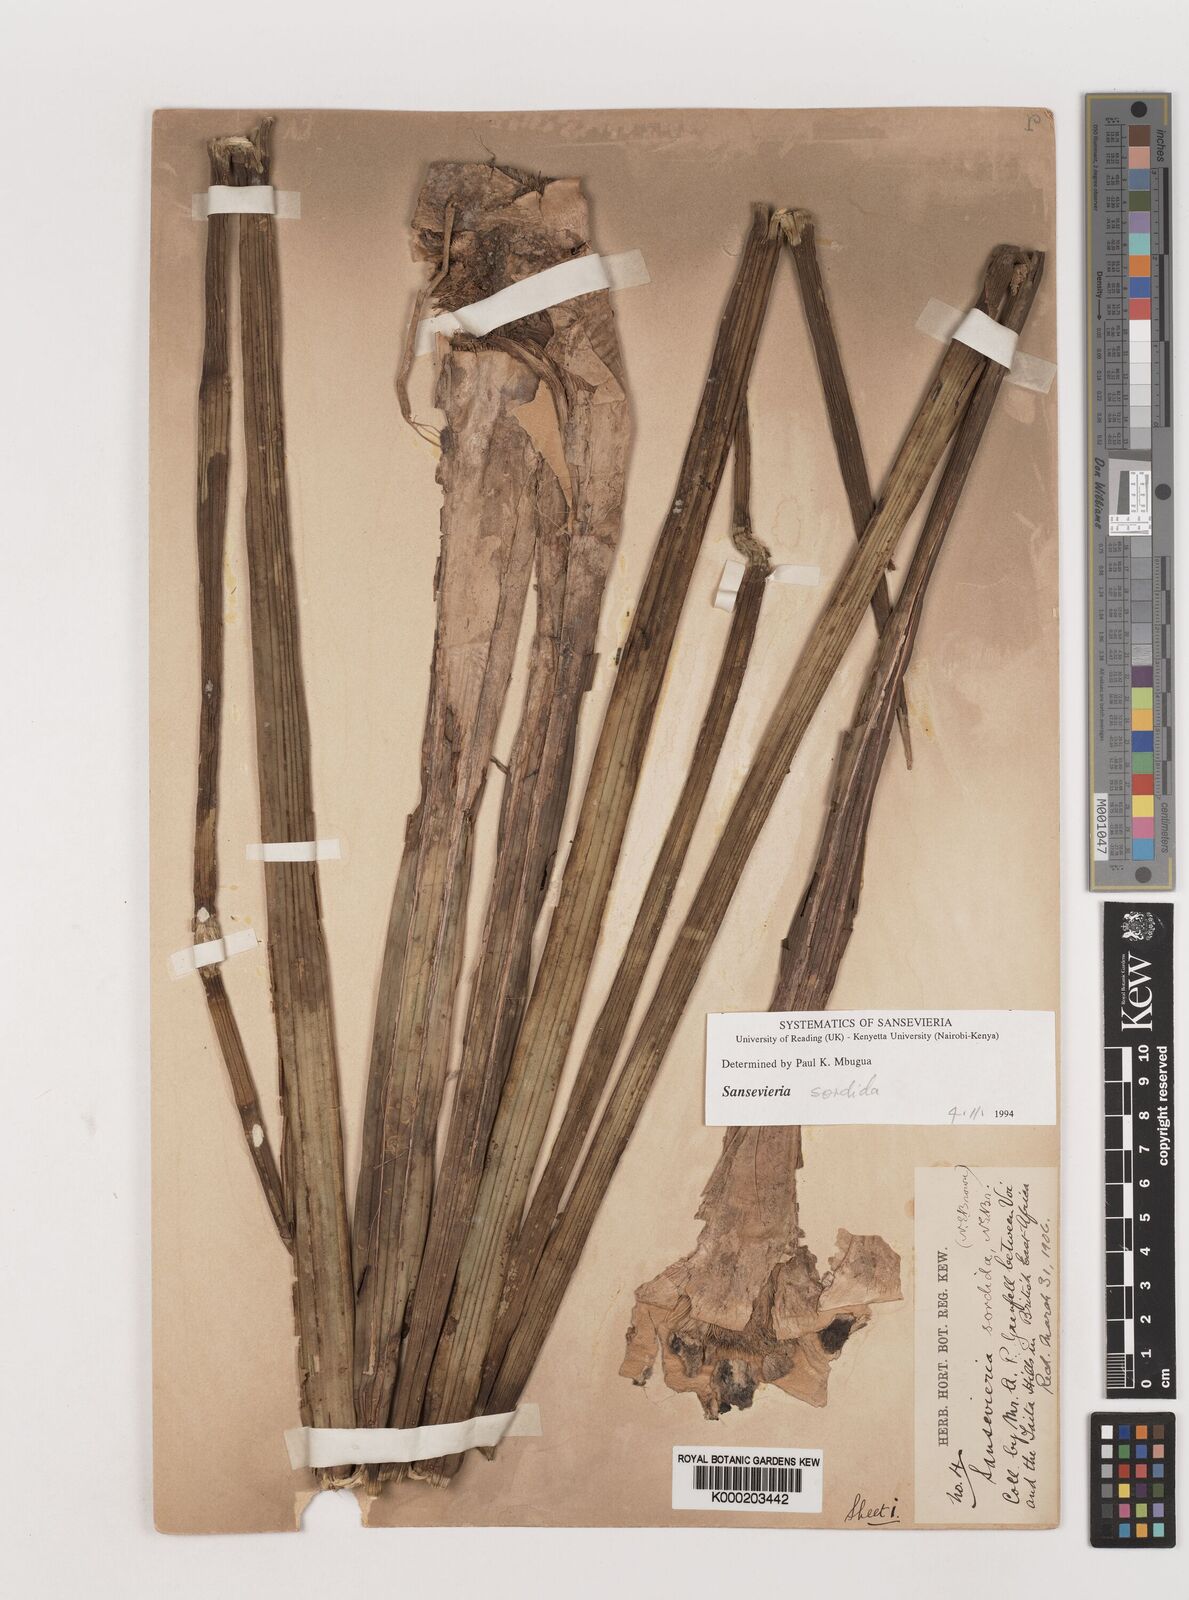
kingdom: Plantae
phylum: Tracheophyta
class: Liliopsida
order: Asparagales
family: Asparagaceae
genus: Dracaena
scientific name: Dracaena varians
